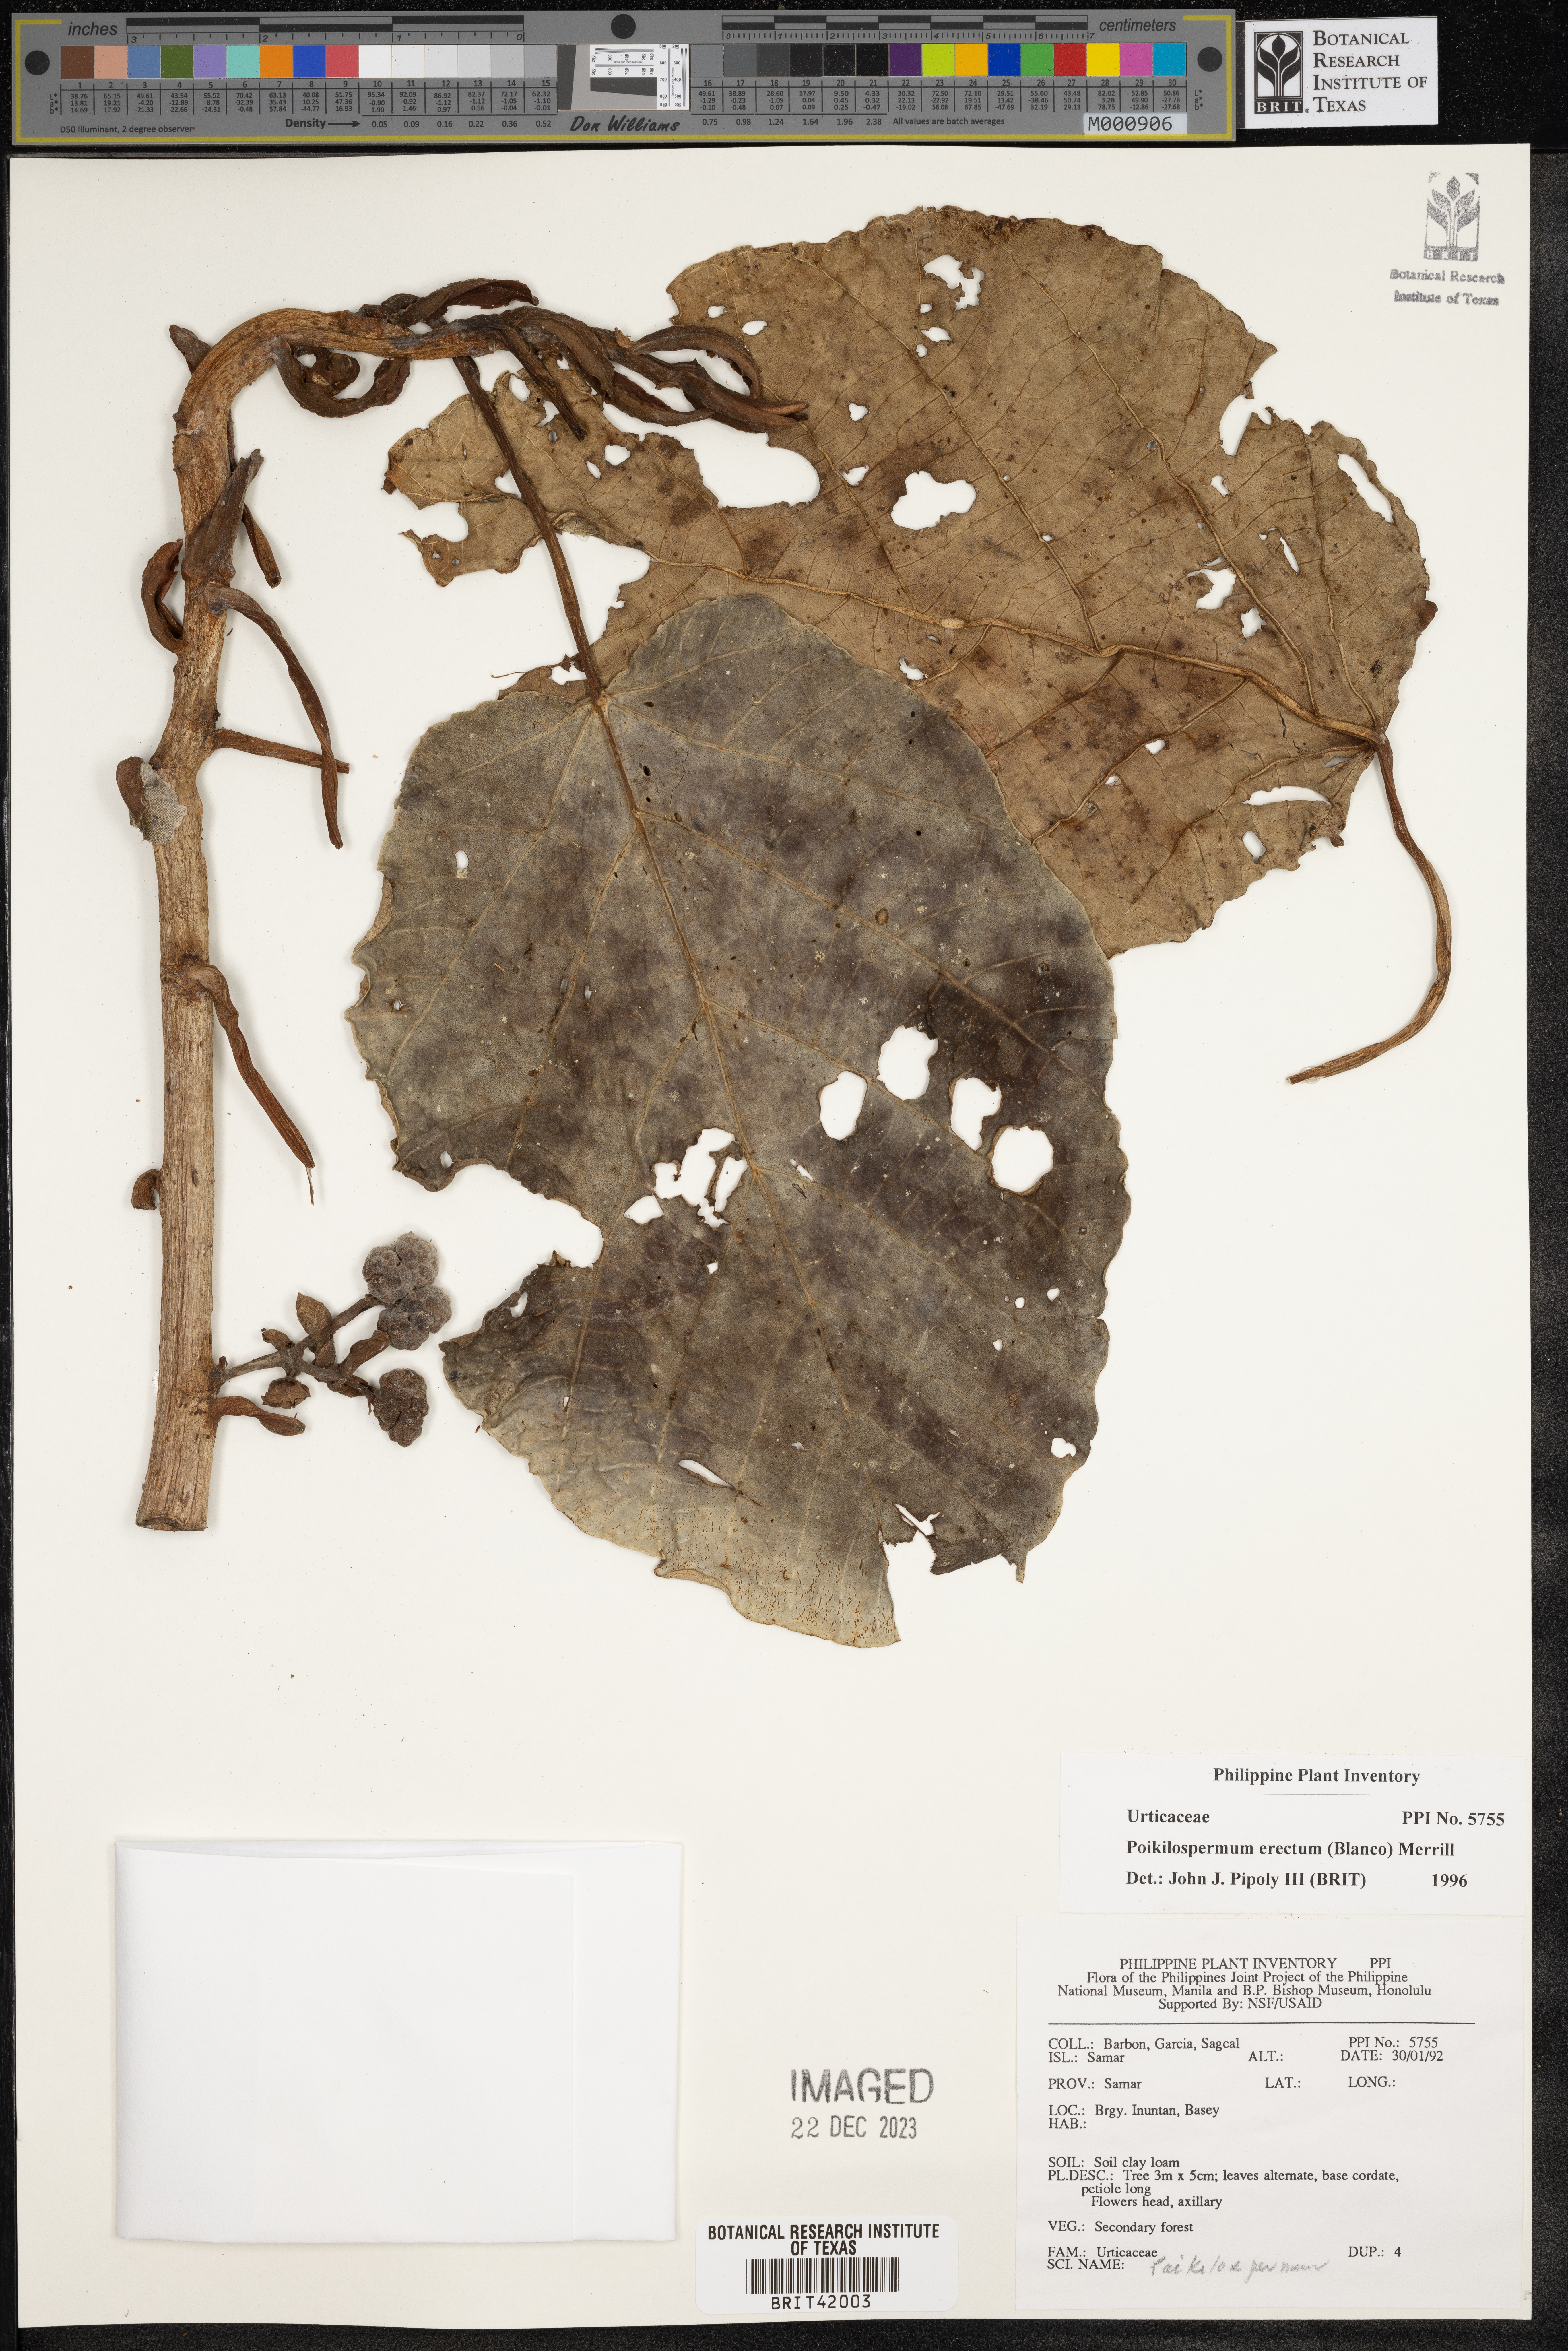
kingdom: Plantae
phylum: Tracheophyta
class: Magnoliopsida
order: Rosales
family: Urticaceae
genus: Poikilospermum
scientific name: Poikilospermum erectum
